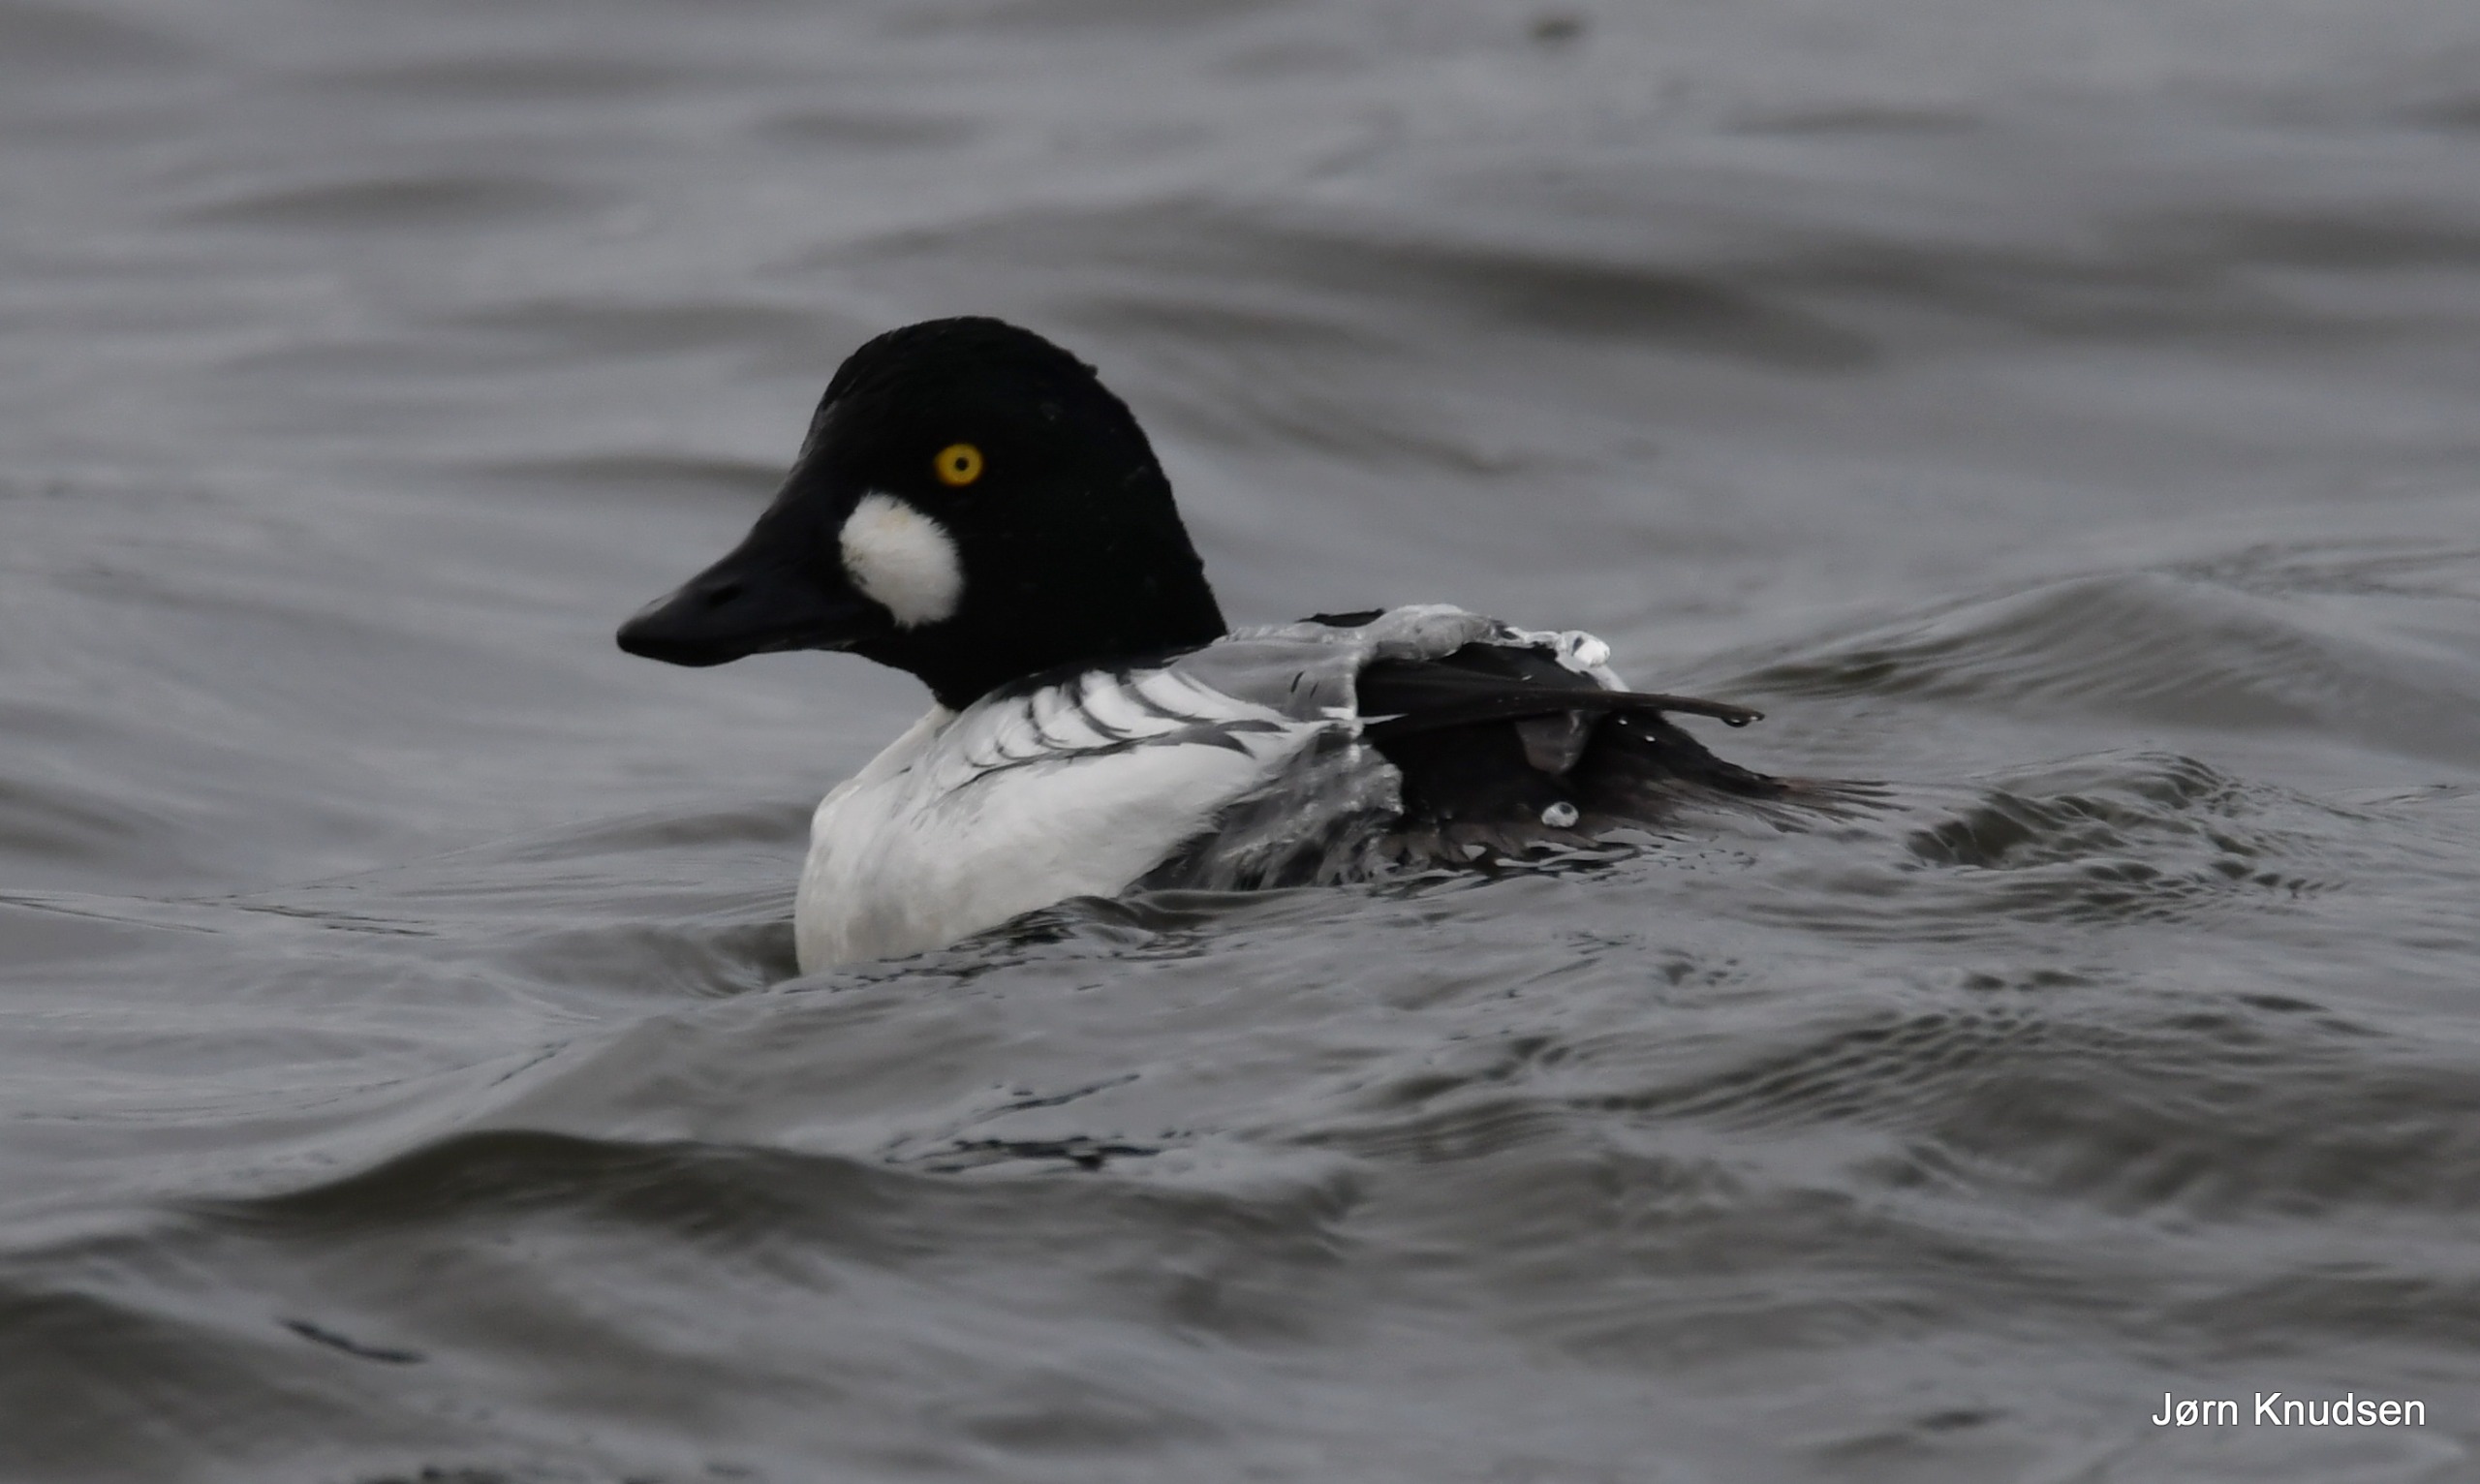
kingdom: Animalia
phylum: Chordata
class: Aves
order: Anseriformes
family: Anatidae
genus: Bucephala
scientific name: Bucephala clangula
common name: Hvinand
